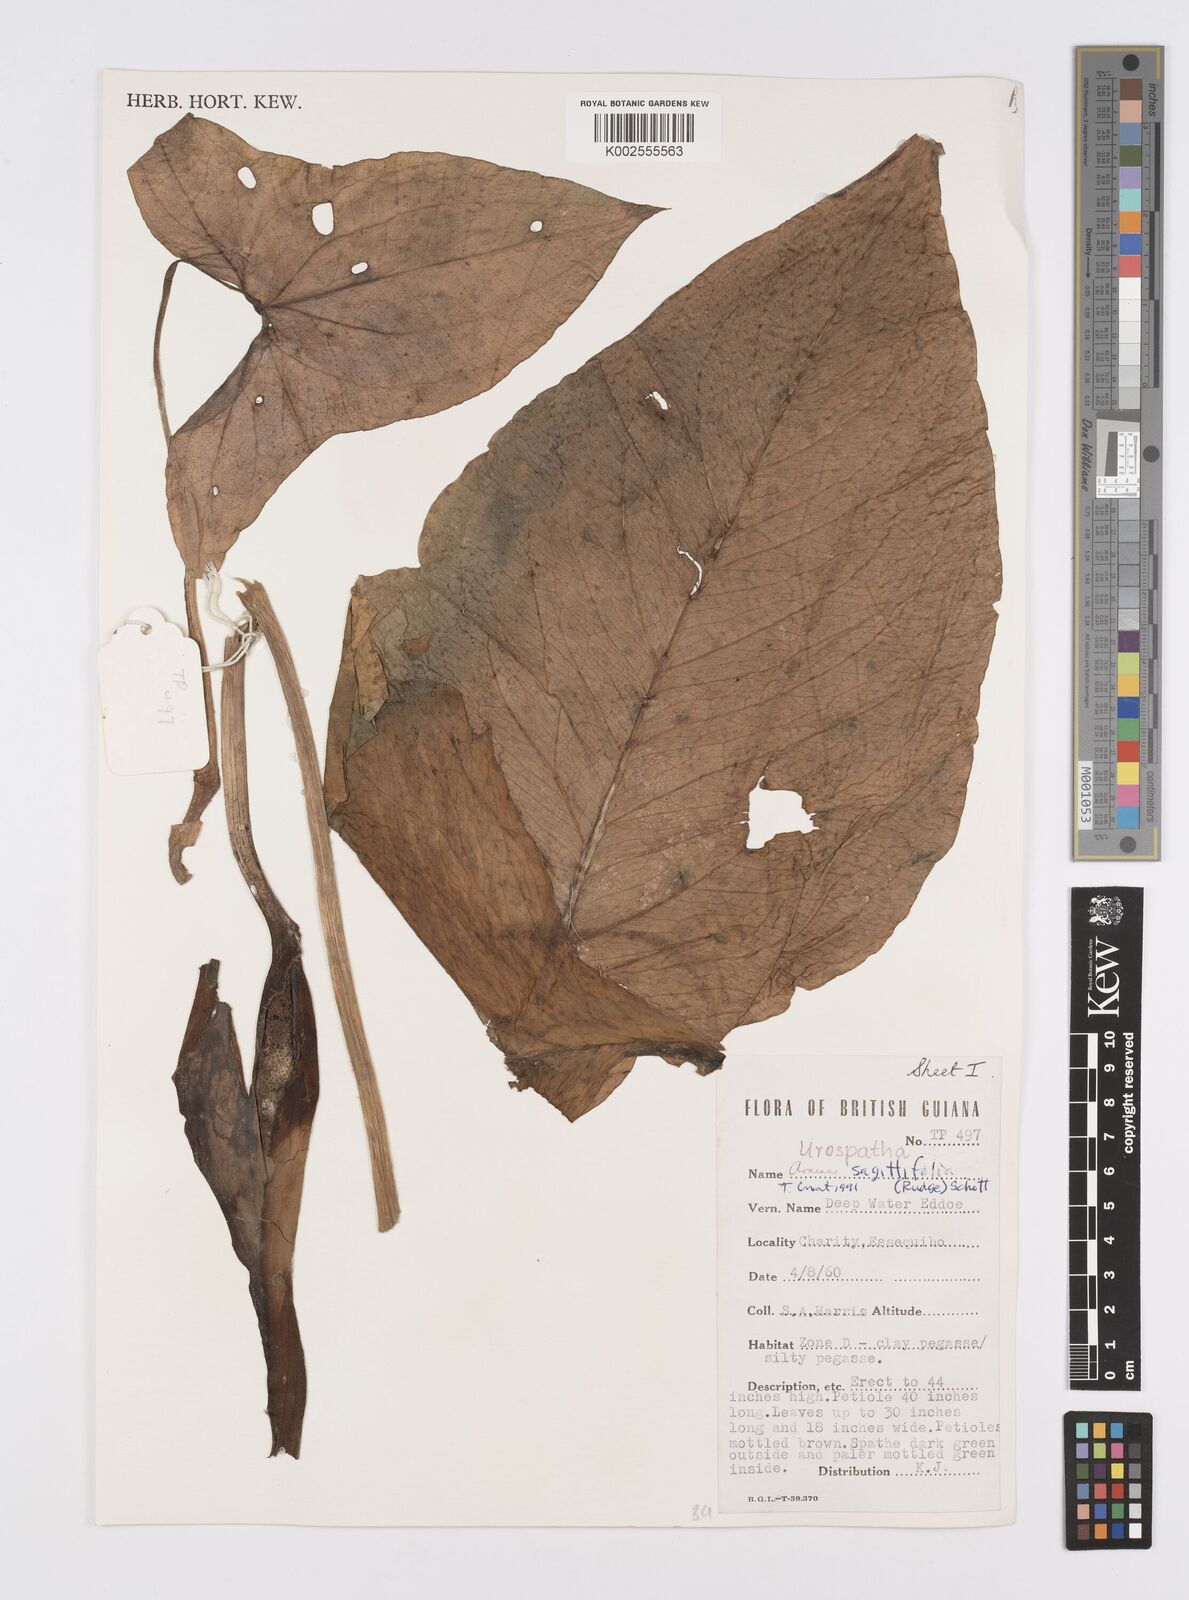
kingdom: Plantae
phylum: Tracheophyta
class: Liliopsida
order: Alismatales
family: Araceae
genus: Urospatha
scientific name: Urospatha sagittifolia
